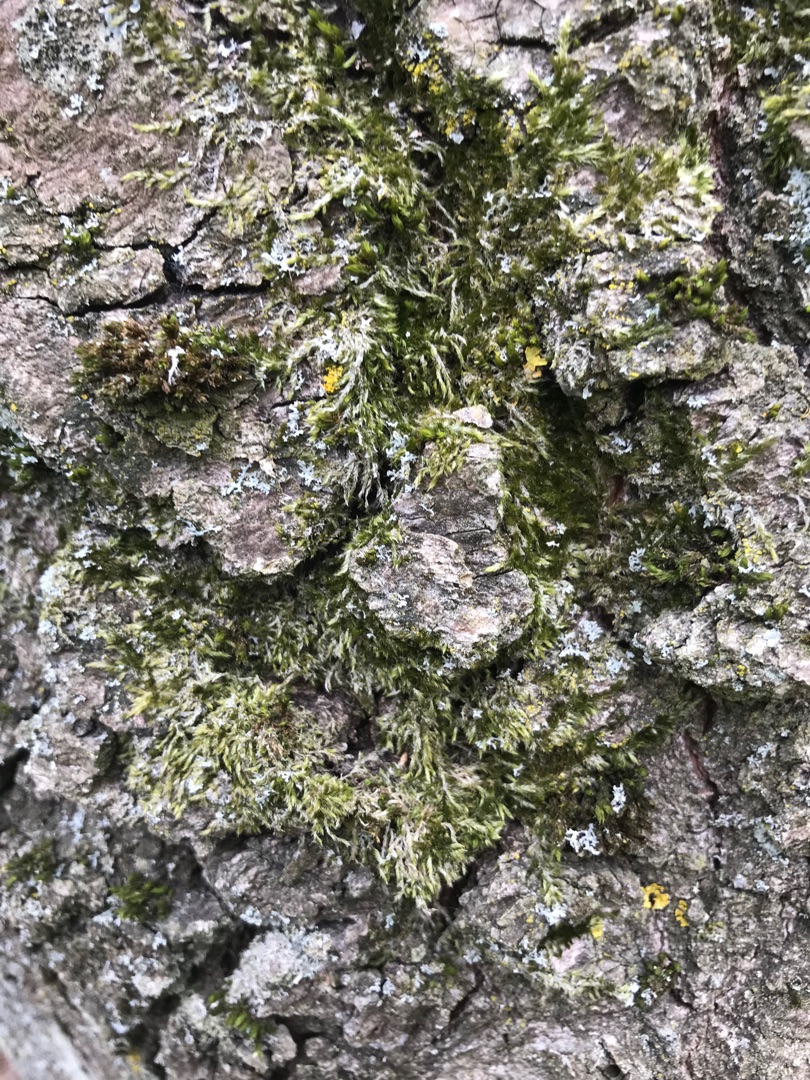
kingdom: Plantae
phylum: Bryophyta
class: Bryopsida
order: Hypnales
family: Hypnaceae
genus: Hypnum
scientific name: Hypnum
